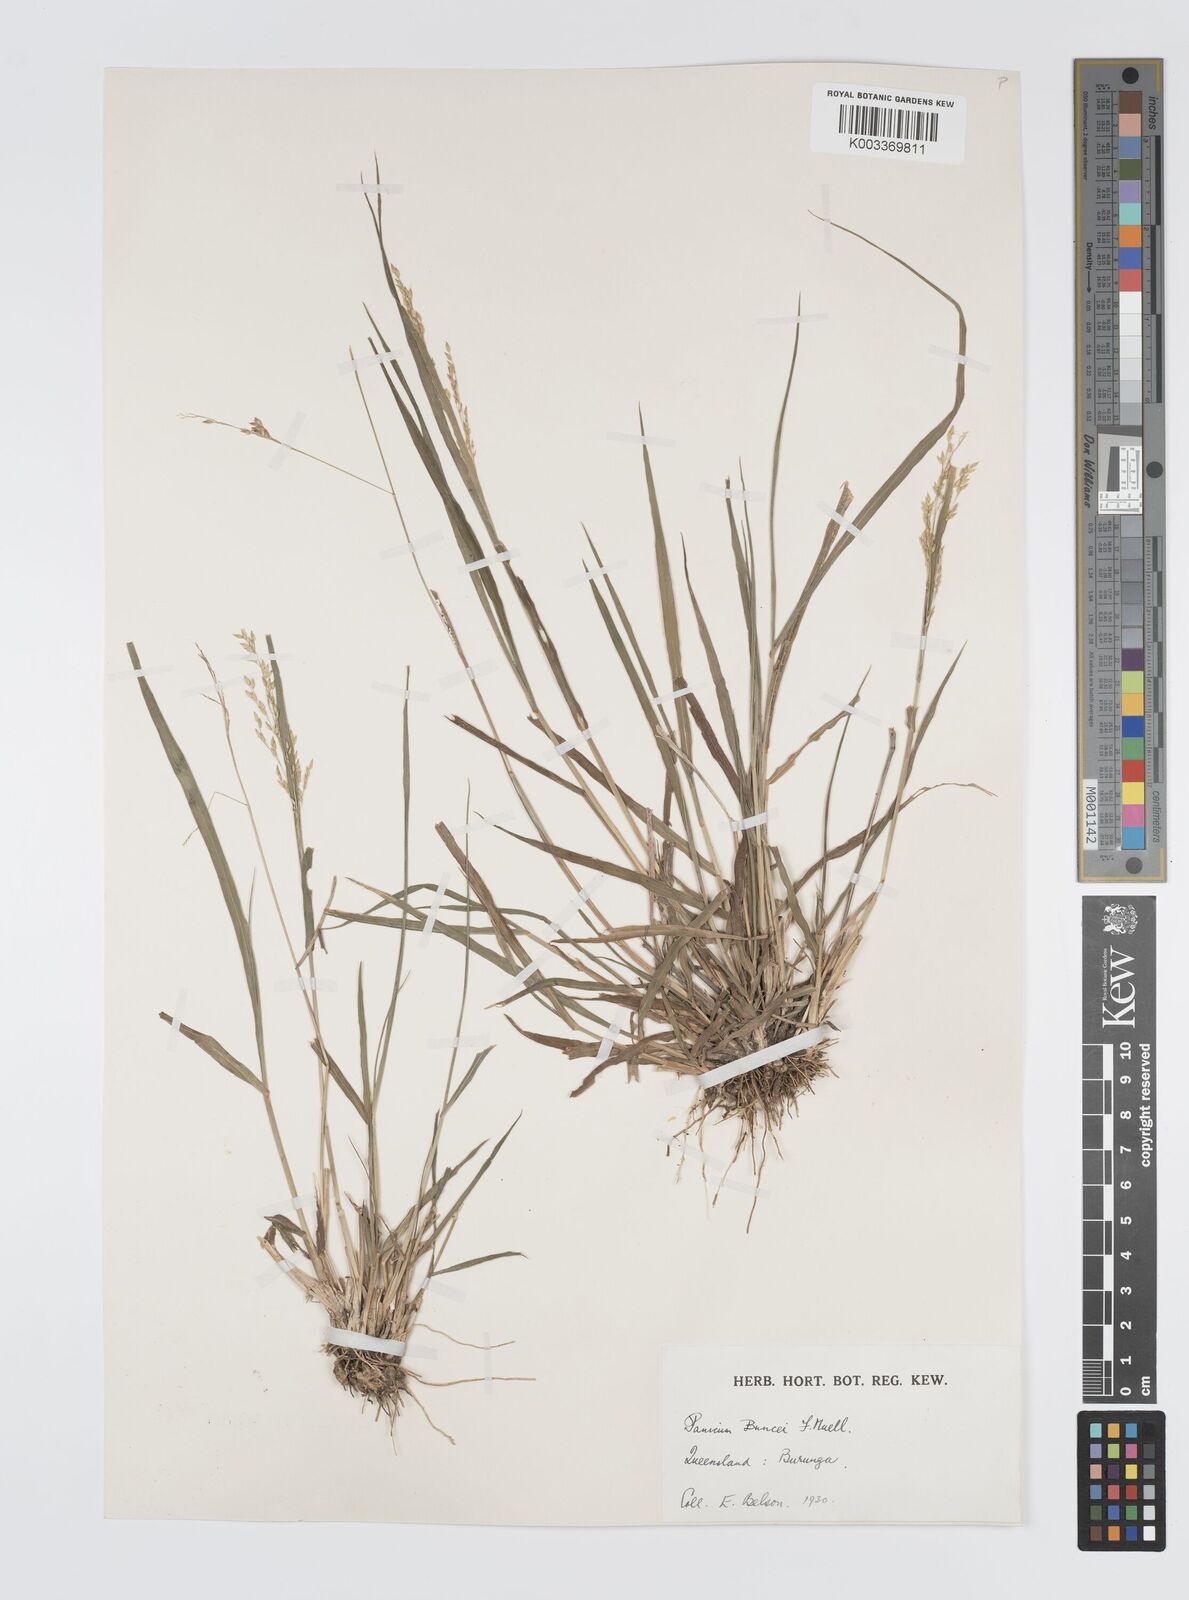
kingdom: Plantae
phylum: Tracheophyta
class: Liliopsida
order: Poales
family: Poaceae
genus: Panicum
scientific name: Panicum buncei
